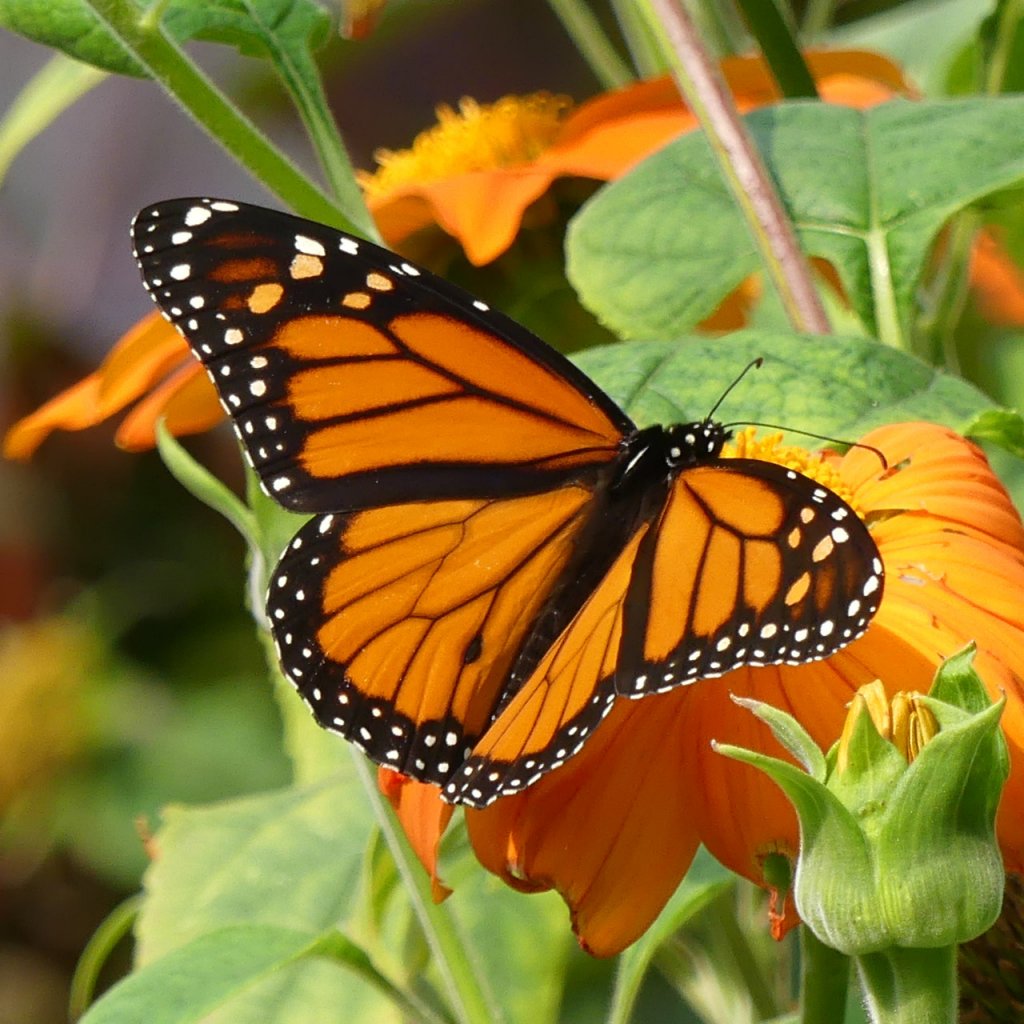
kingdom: Animalia
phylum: Arthropoda
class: Insecta
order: Lepidoptera
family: Nymphalidae
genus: Danaus
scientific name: Danaus plexippus
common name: Monarch
